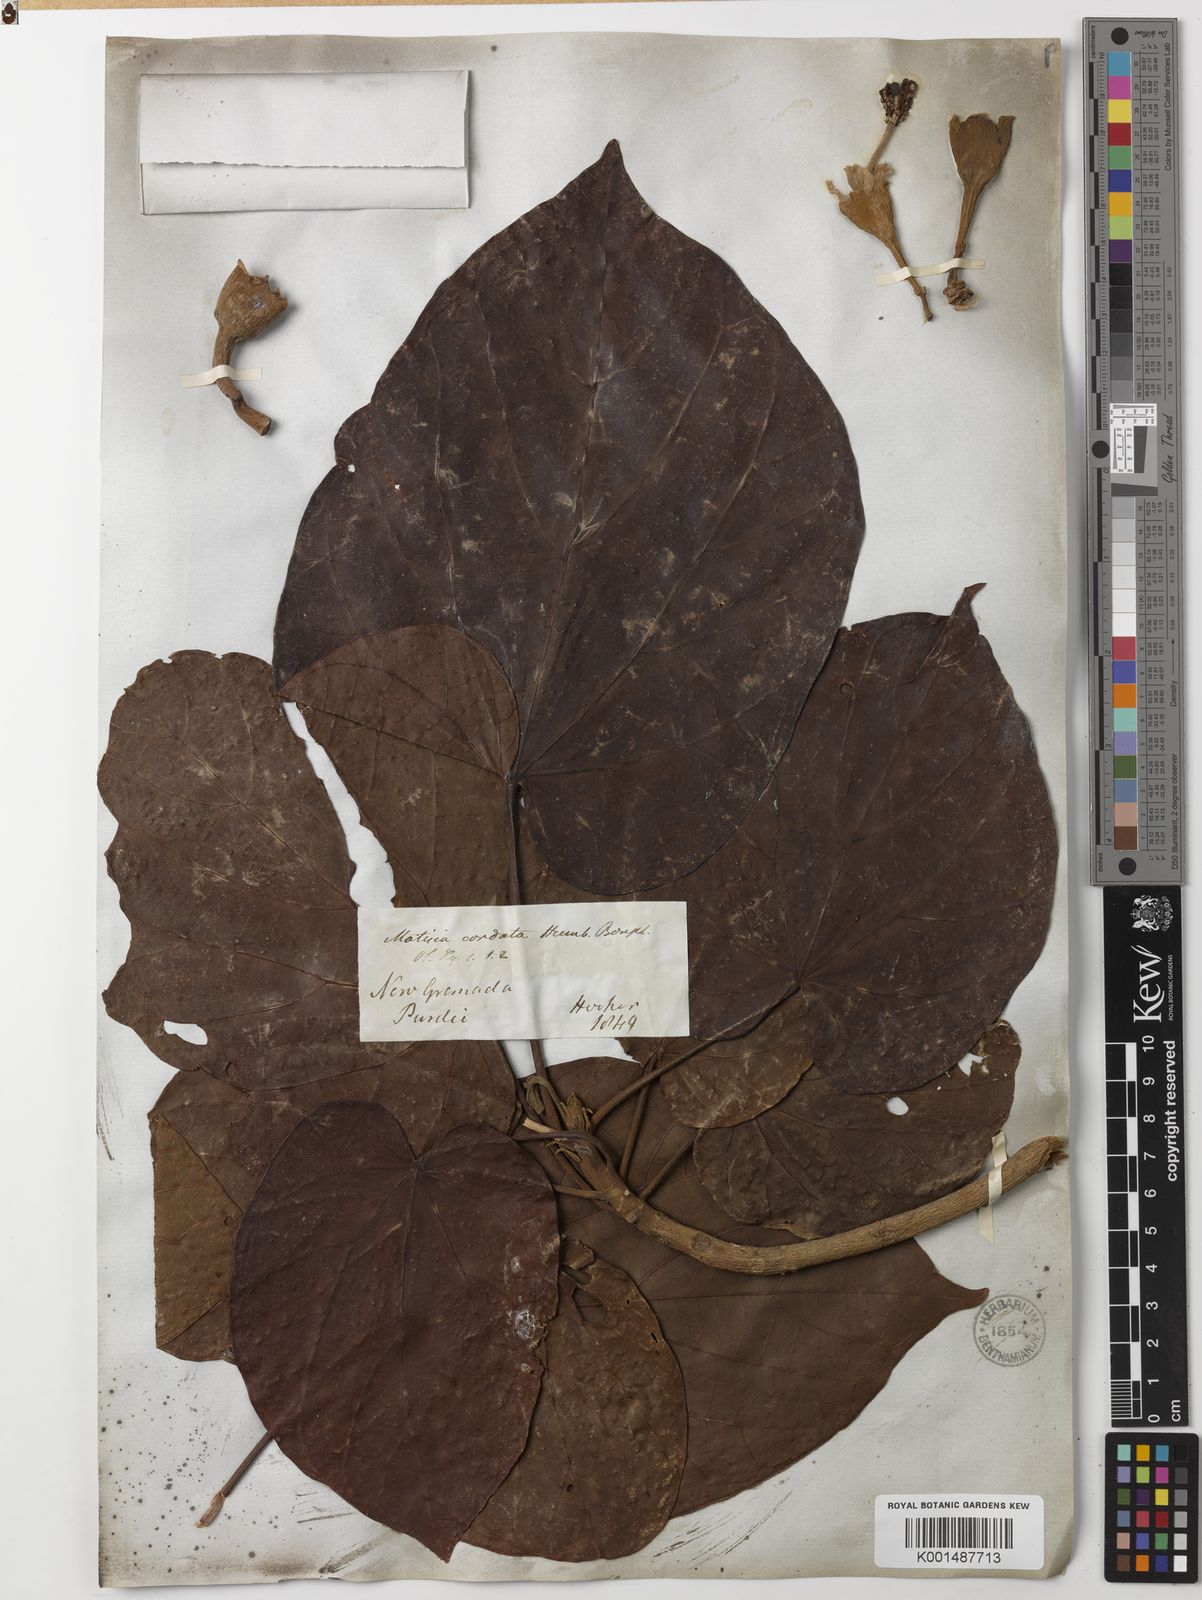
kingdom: Plantae
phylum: Tracheophyta
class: Magnoliopsida
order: Malvales
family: Malvaceae
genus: Matisia
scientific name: Matisia cordata
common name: South american sapote
